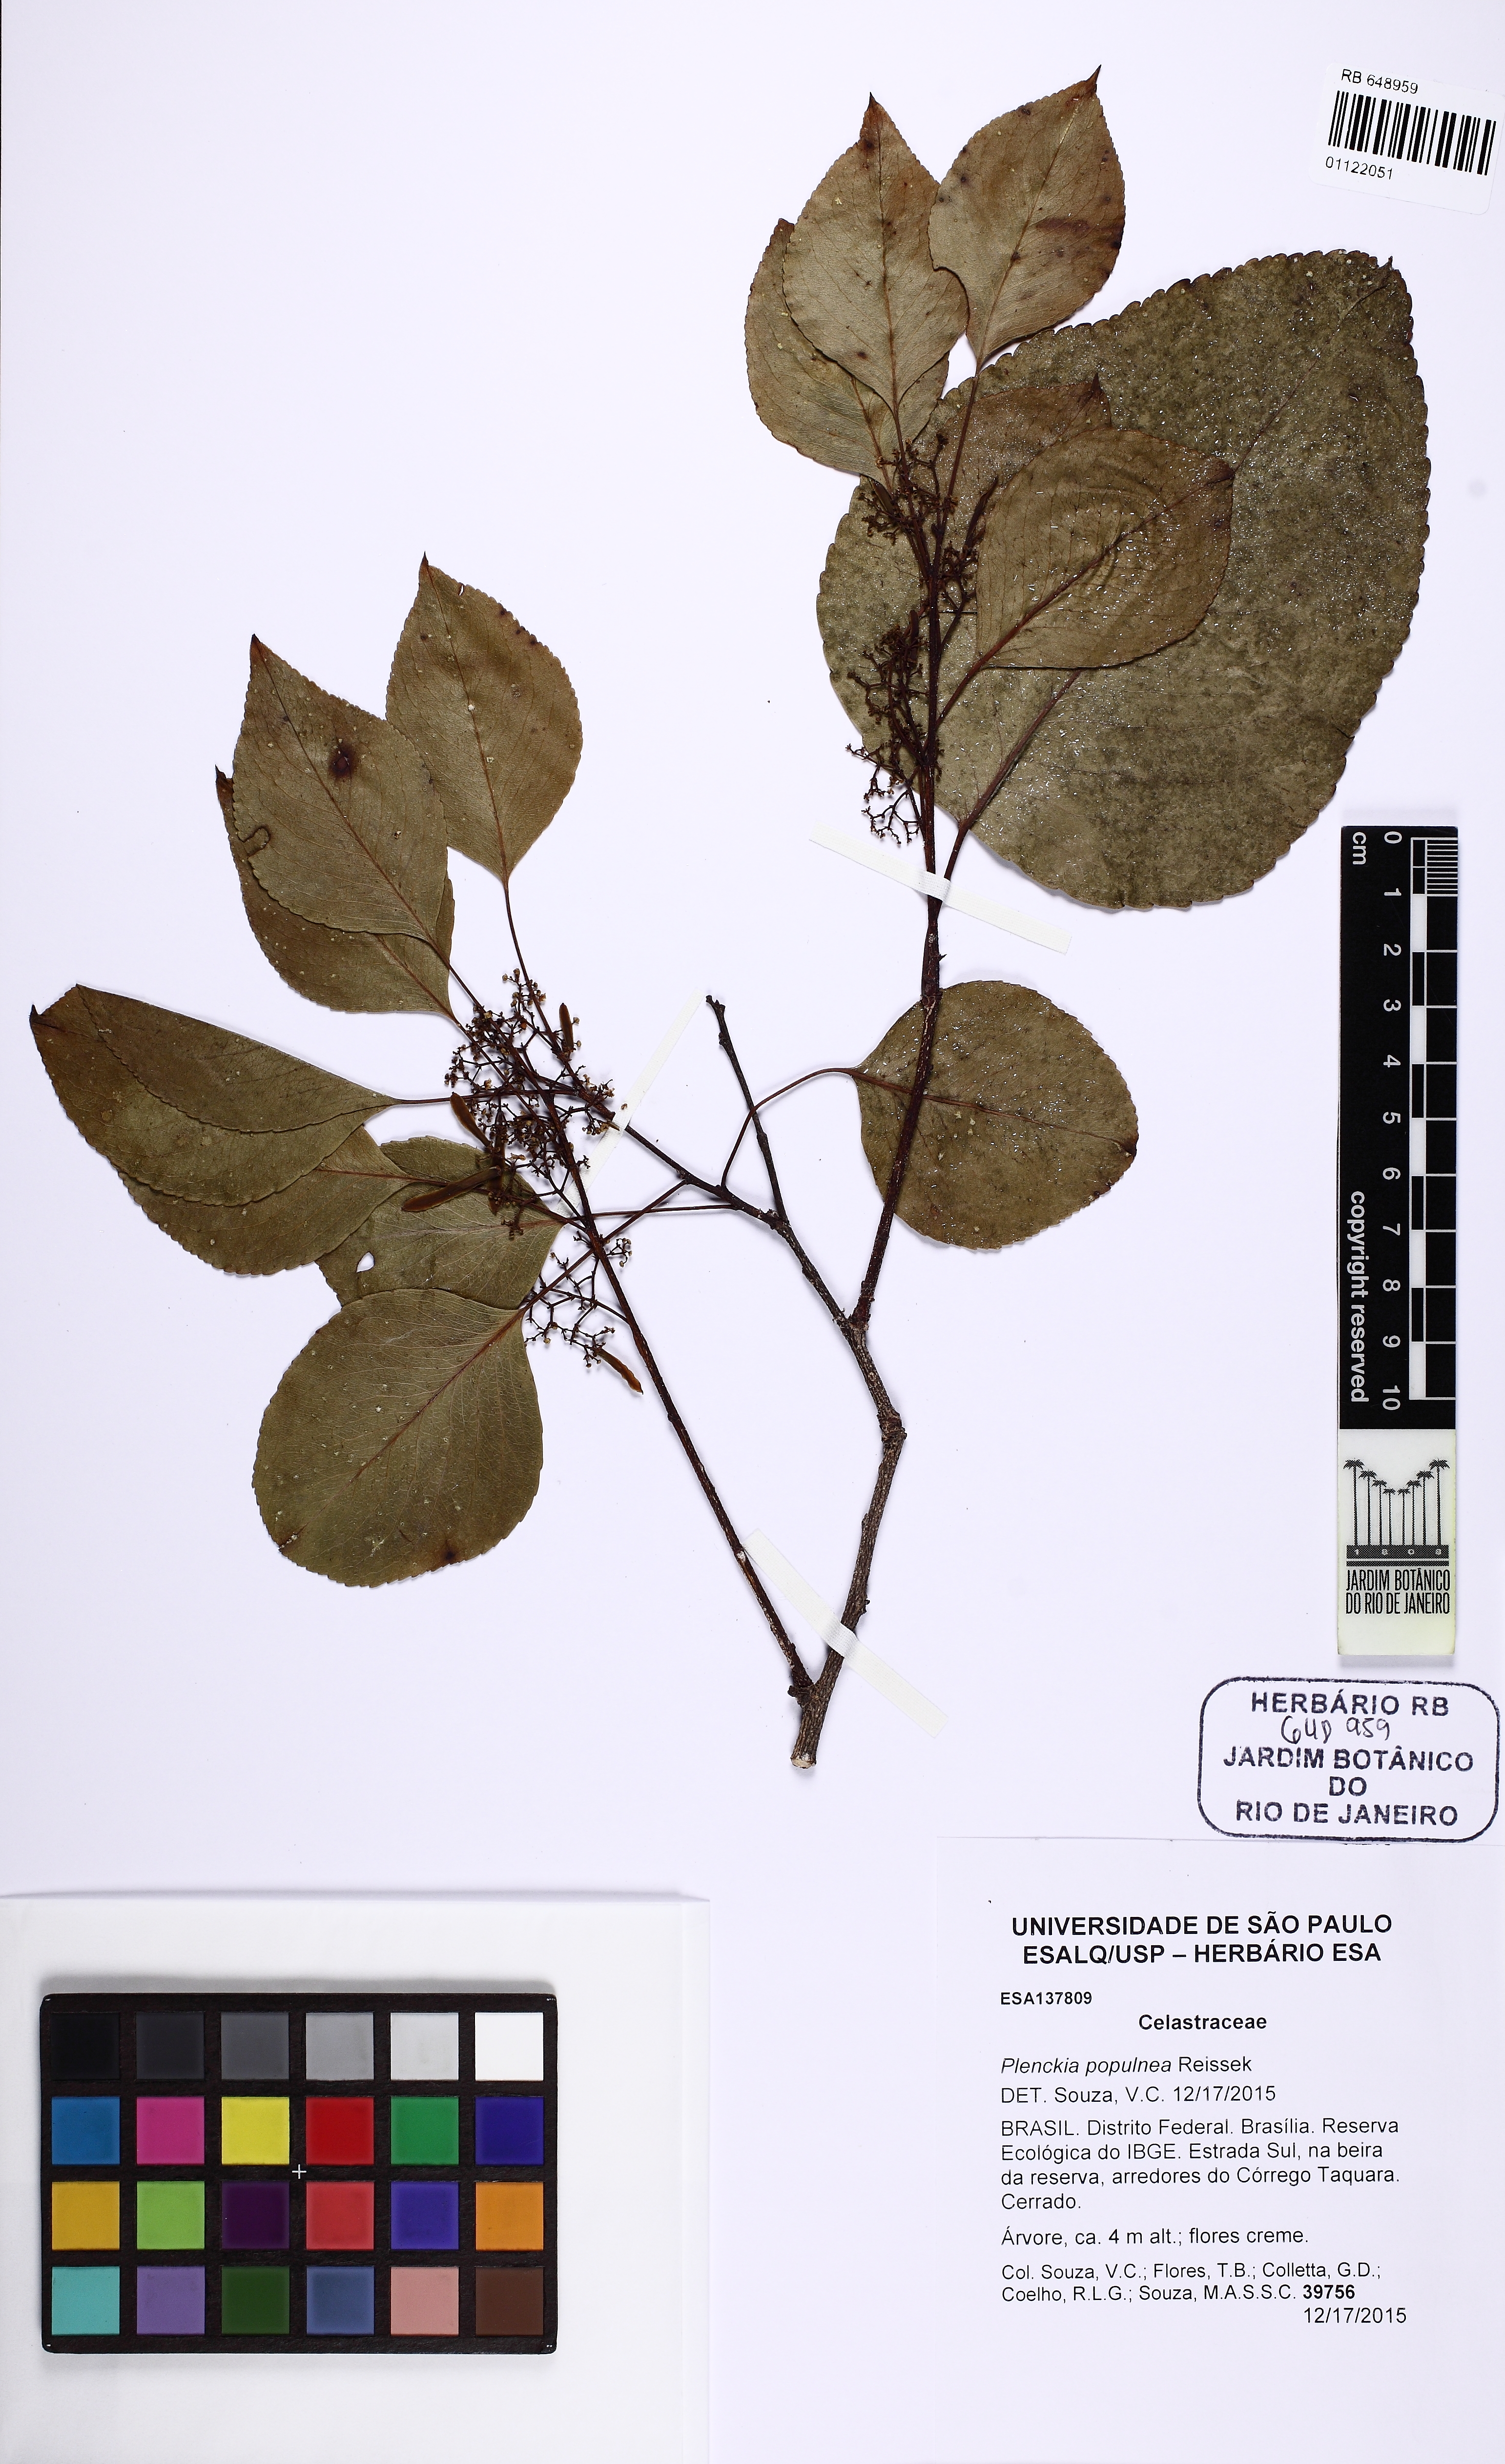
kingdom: Plantae
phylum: Tracheophyta
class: Magnoliopsida
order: Celastrales
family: Celastraceae
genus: Plenckia
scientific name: Plenckia populnea
